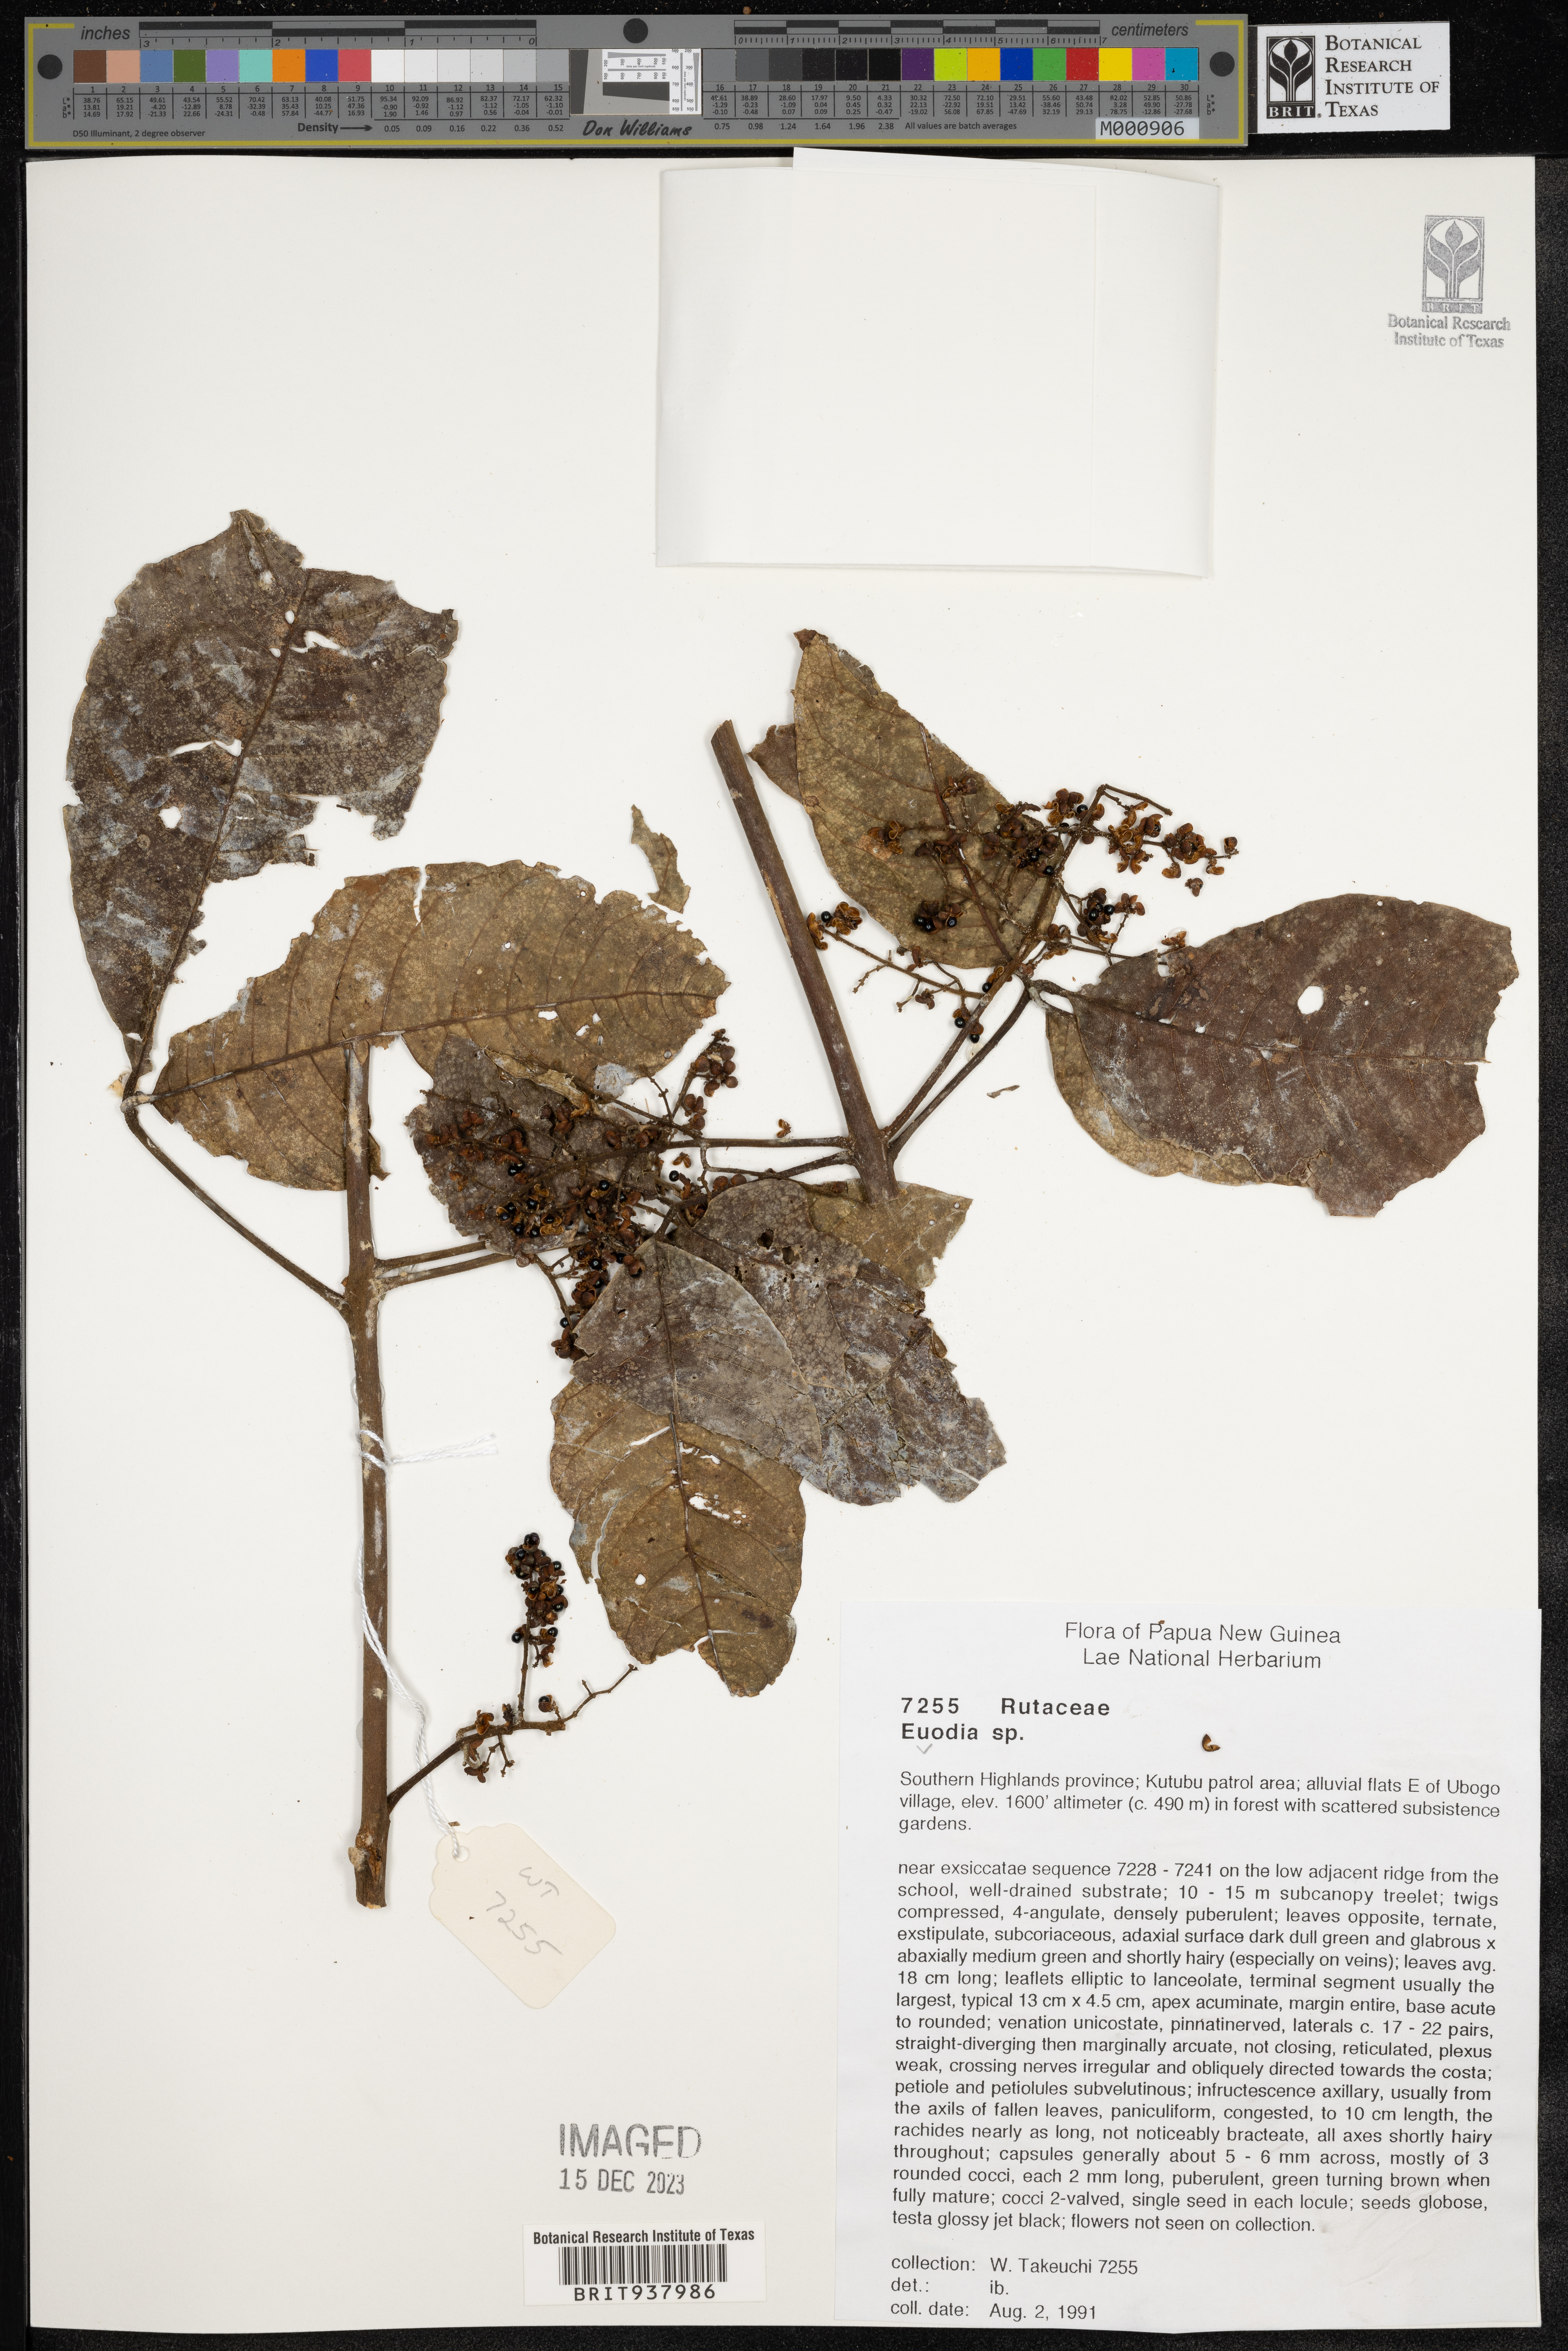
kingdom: Plantae
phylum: Tracheophyta
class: Magnoliopsida
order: Sapindales
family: Rutaceae
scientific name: Rutaceae
